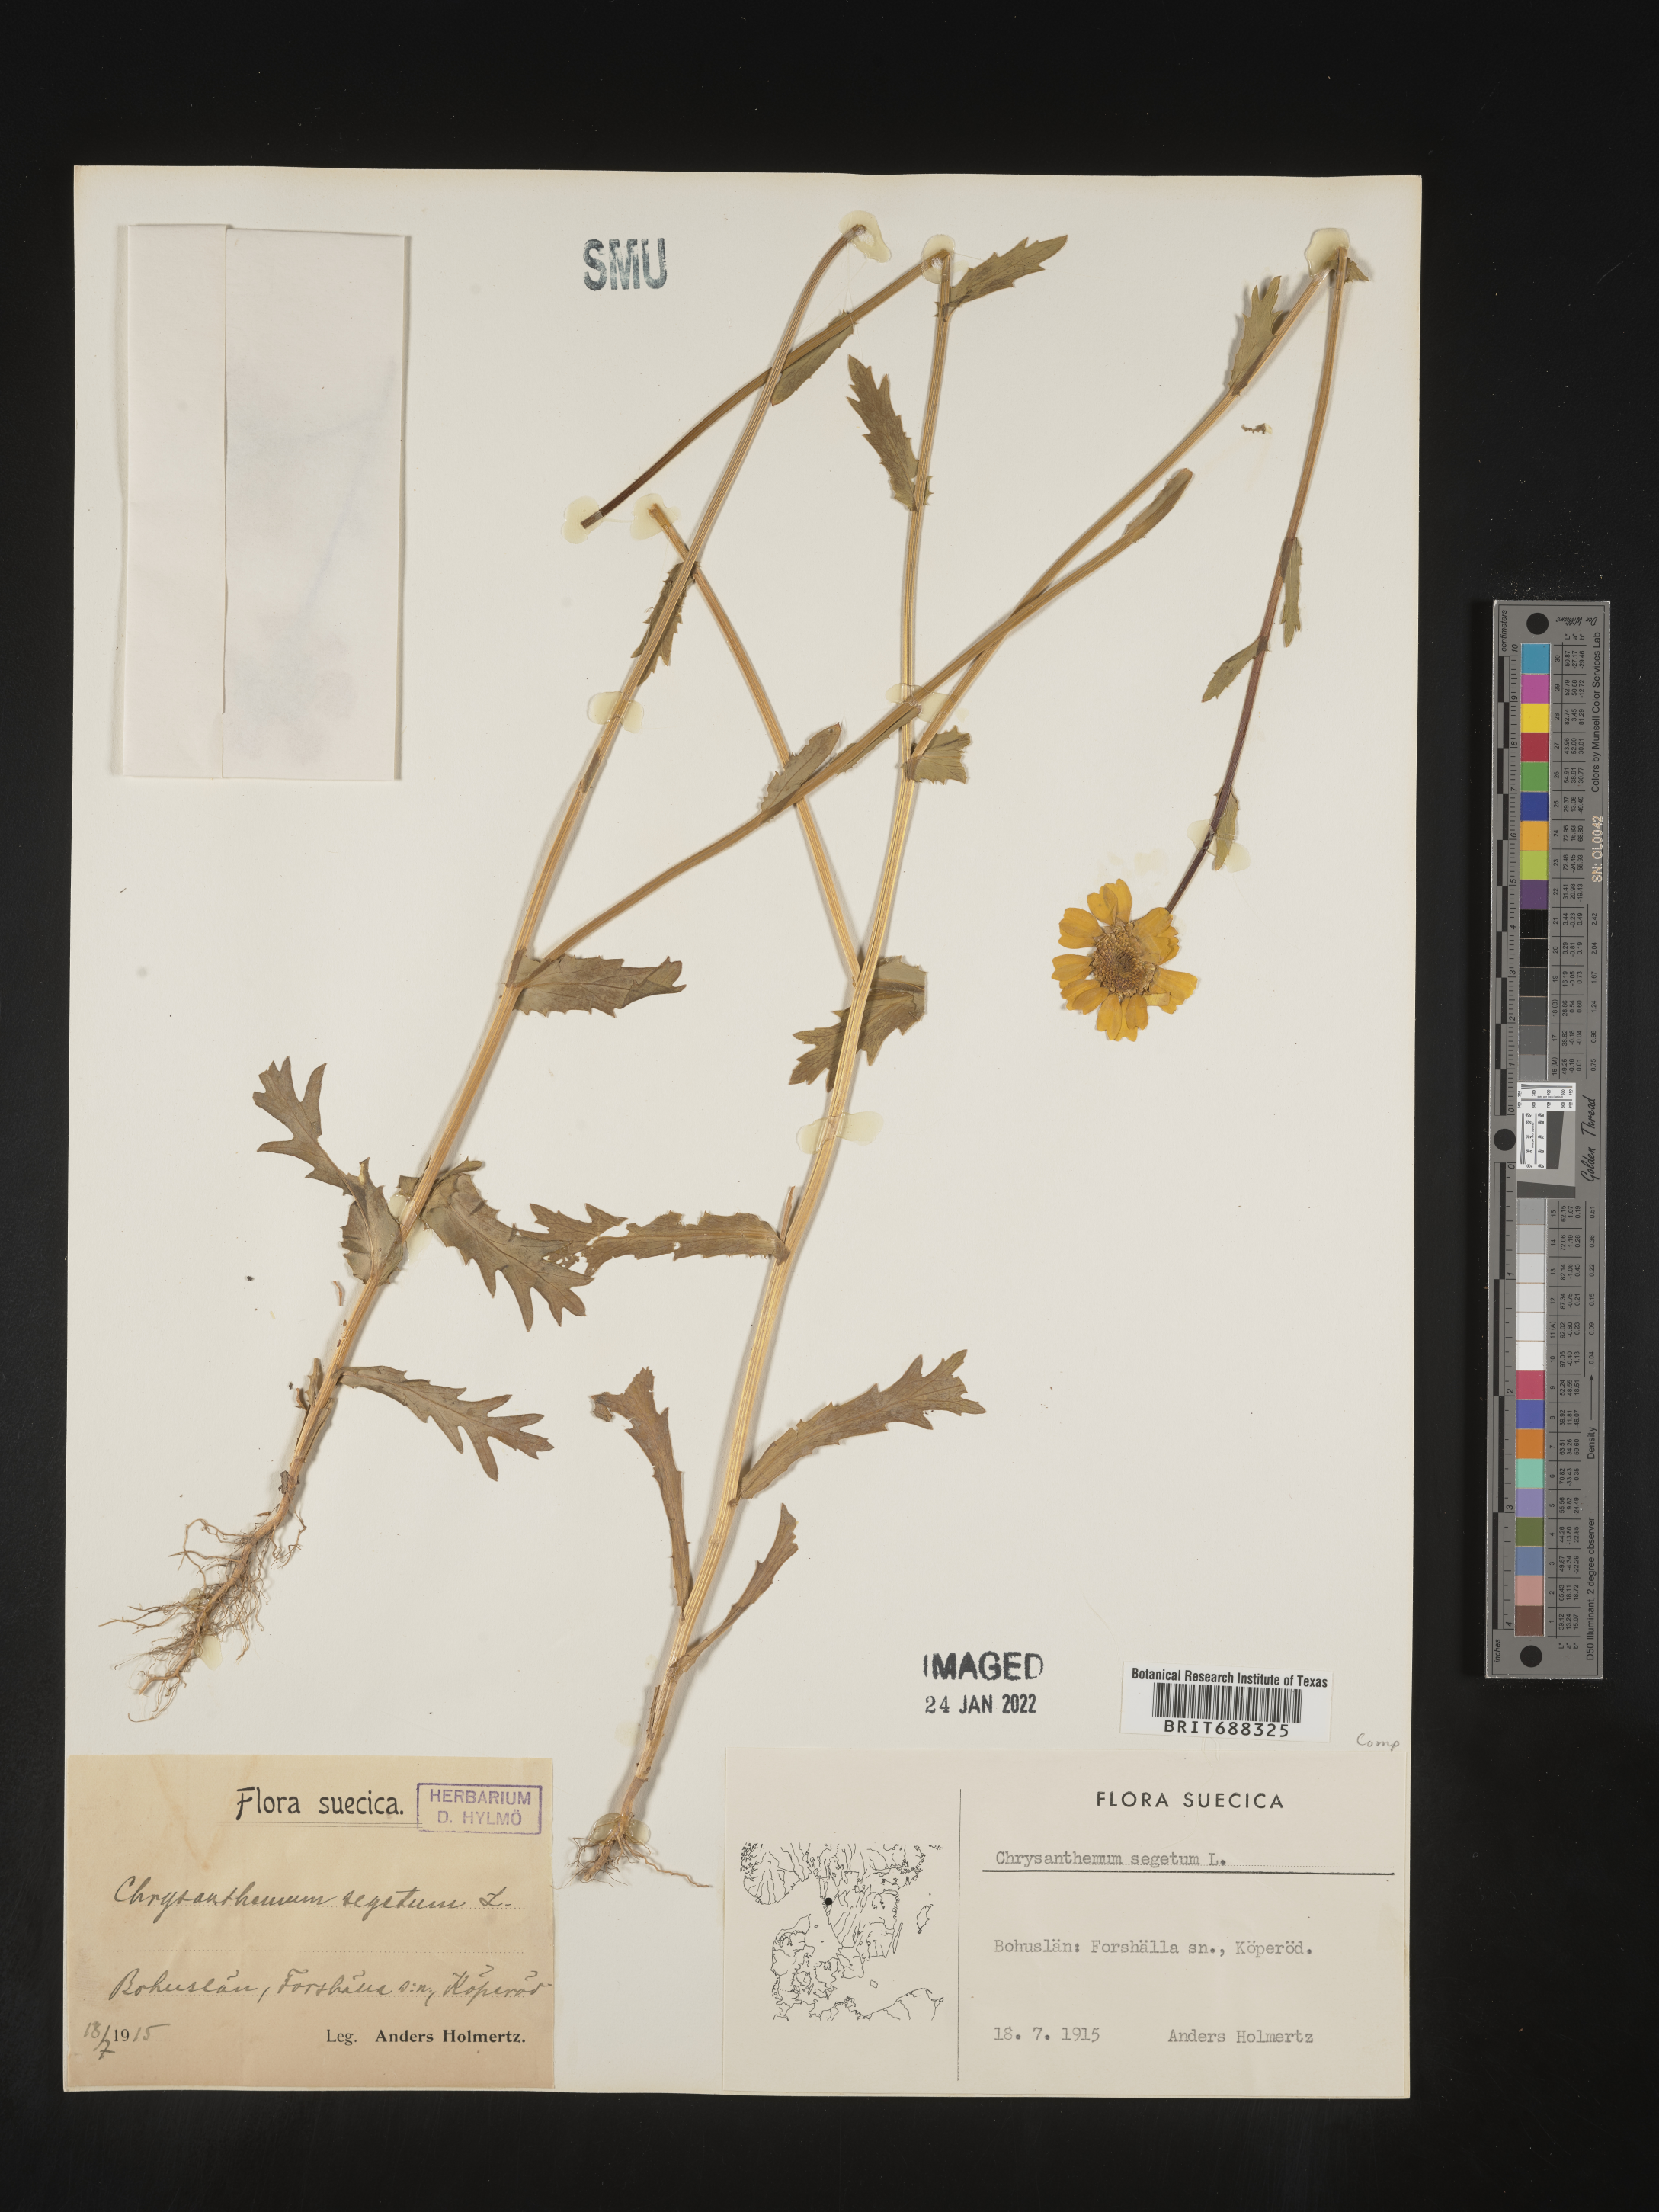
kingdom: Plantae
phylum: Tracheophyta
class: Magnoliopsida
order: Asterales
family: Asteraceae
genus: Chrysanthemum
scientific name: Chrysanthemum
